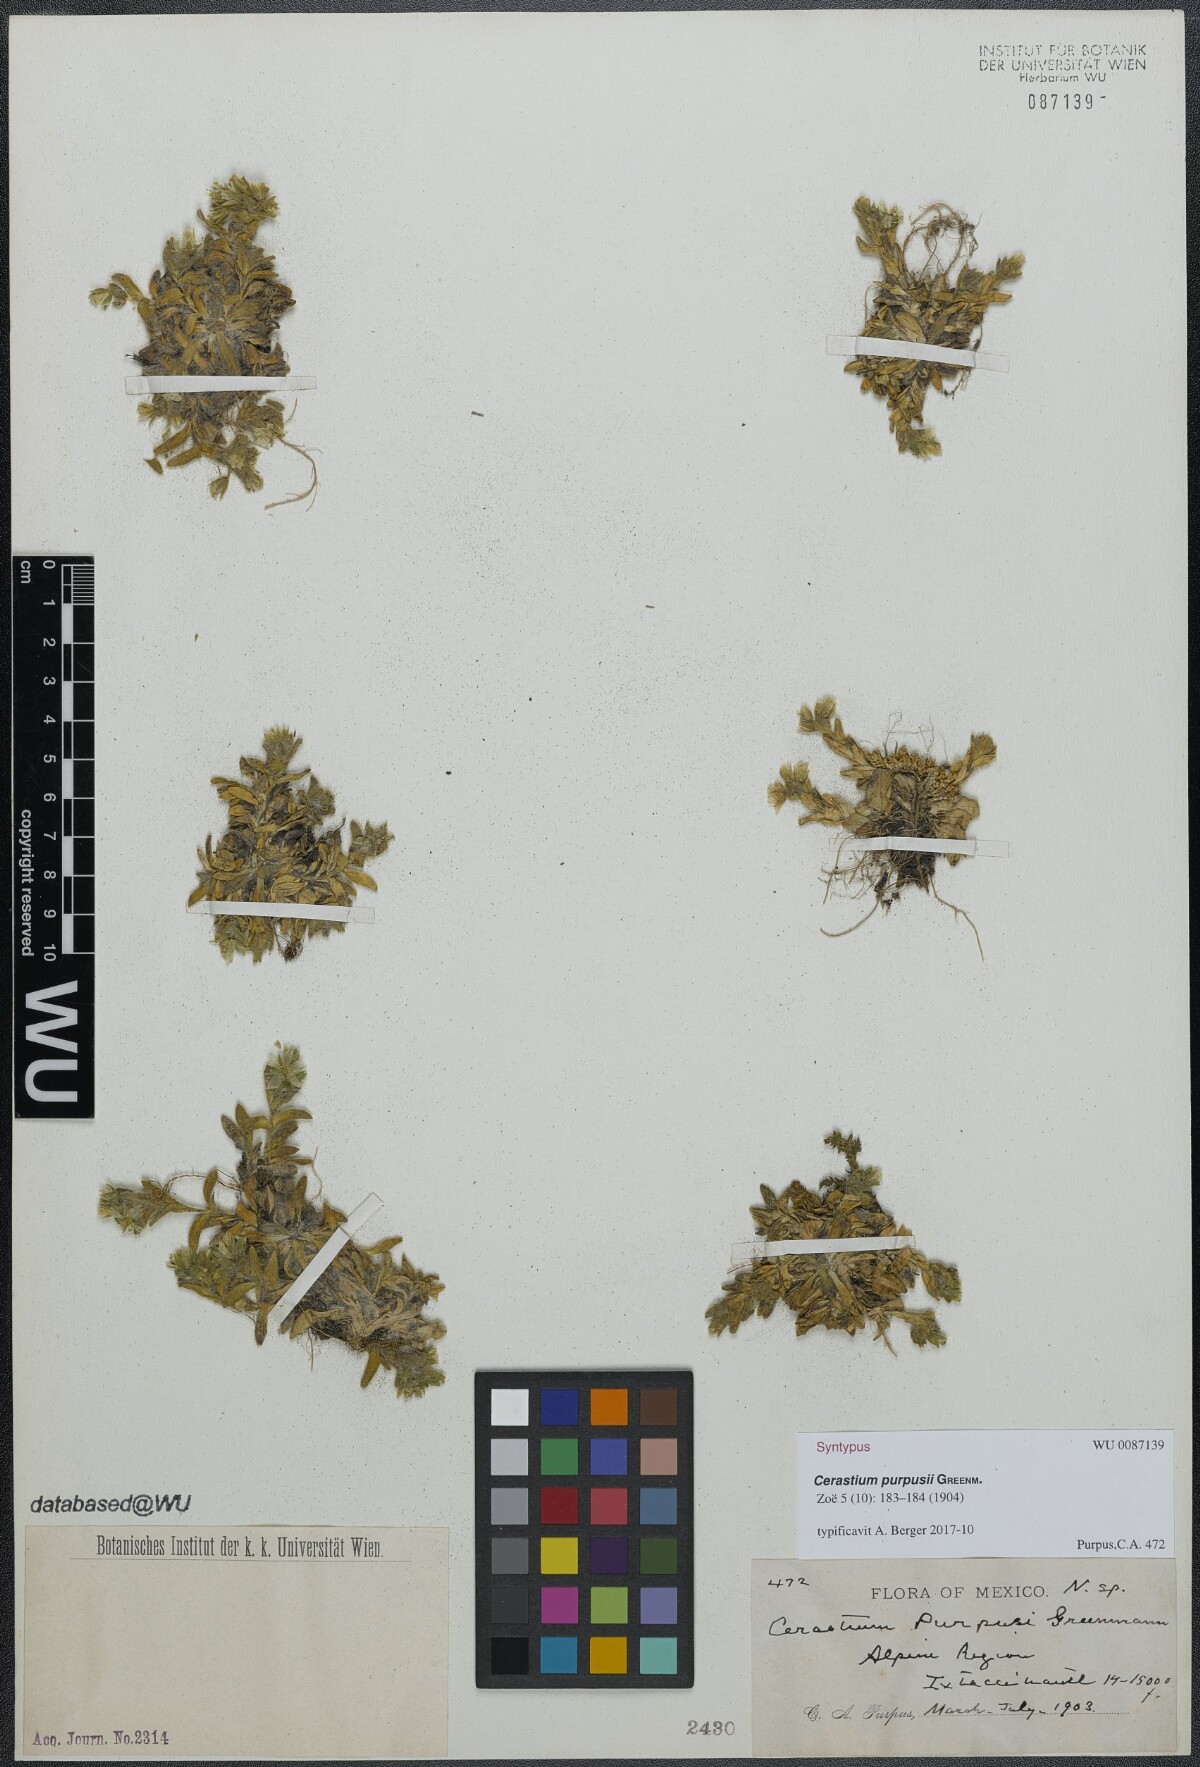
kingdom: Plantae
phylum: Tracheophyta
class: Magnoliopsida
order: Caryophyllales
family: Caryophyllaceae
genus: Cerastium
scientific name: Cerastium purpusii
